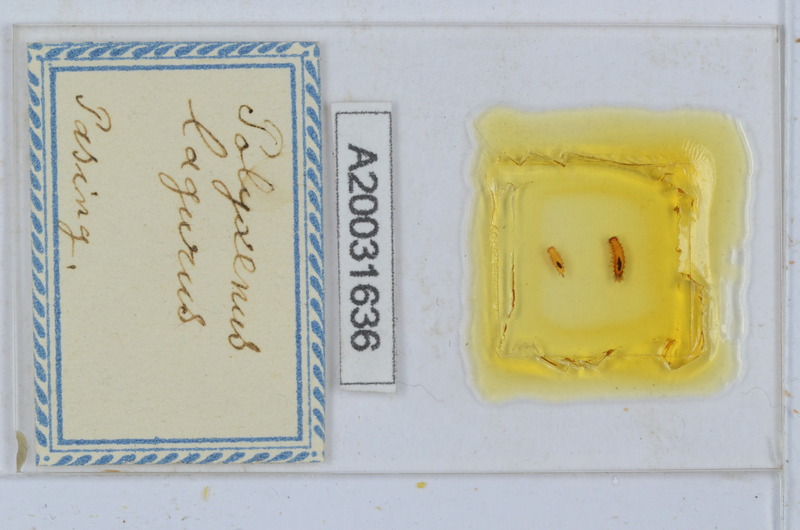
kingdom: Animalia
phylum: Arthropoda
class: Diplopoda
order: Polyxenida
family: Polyxenidae
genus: Polyxenus
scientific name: Polyxenus lagurus
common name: Bristly millipede
